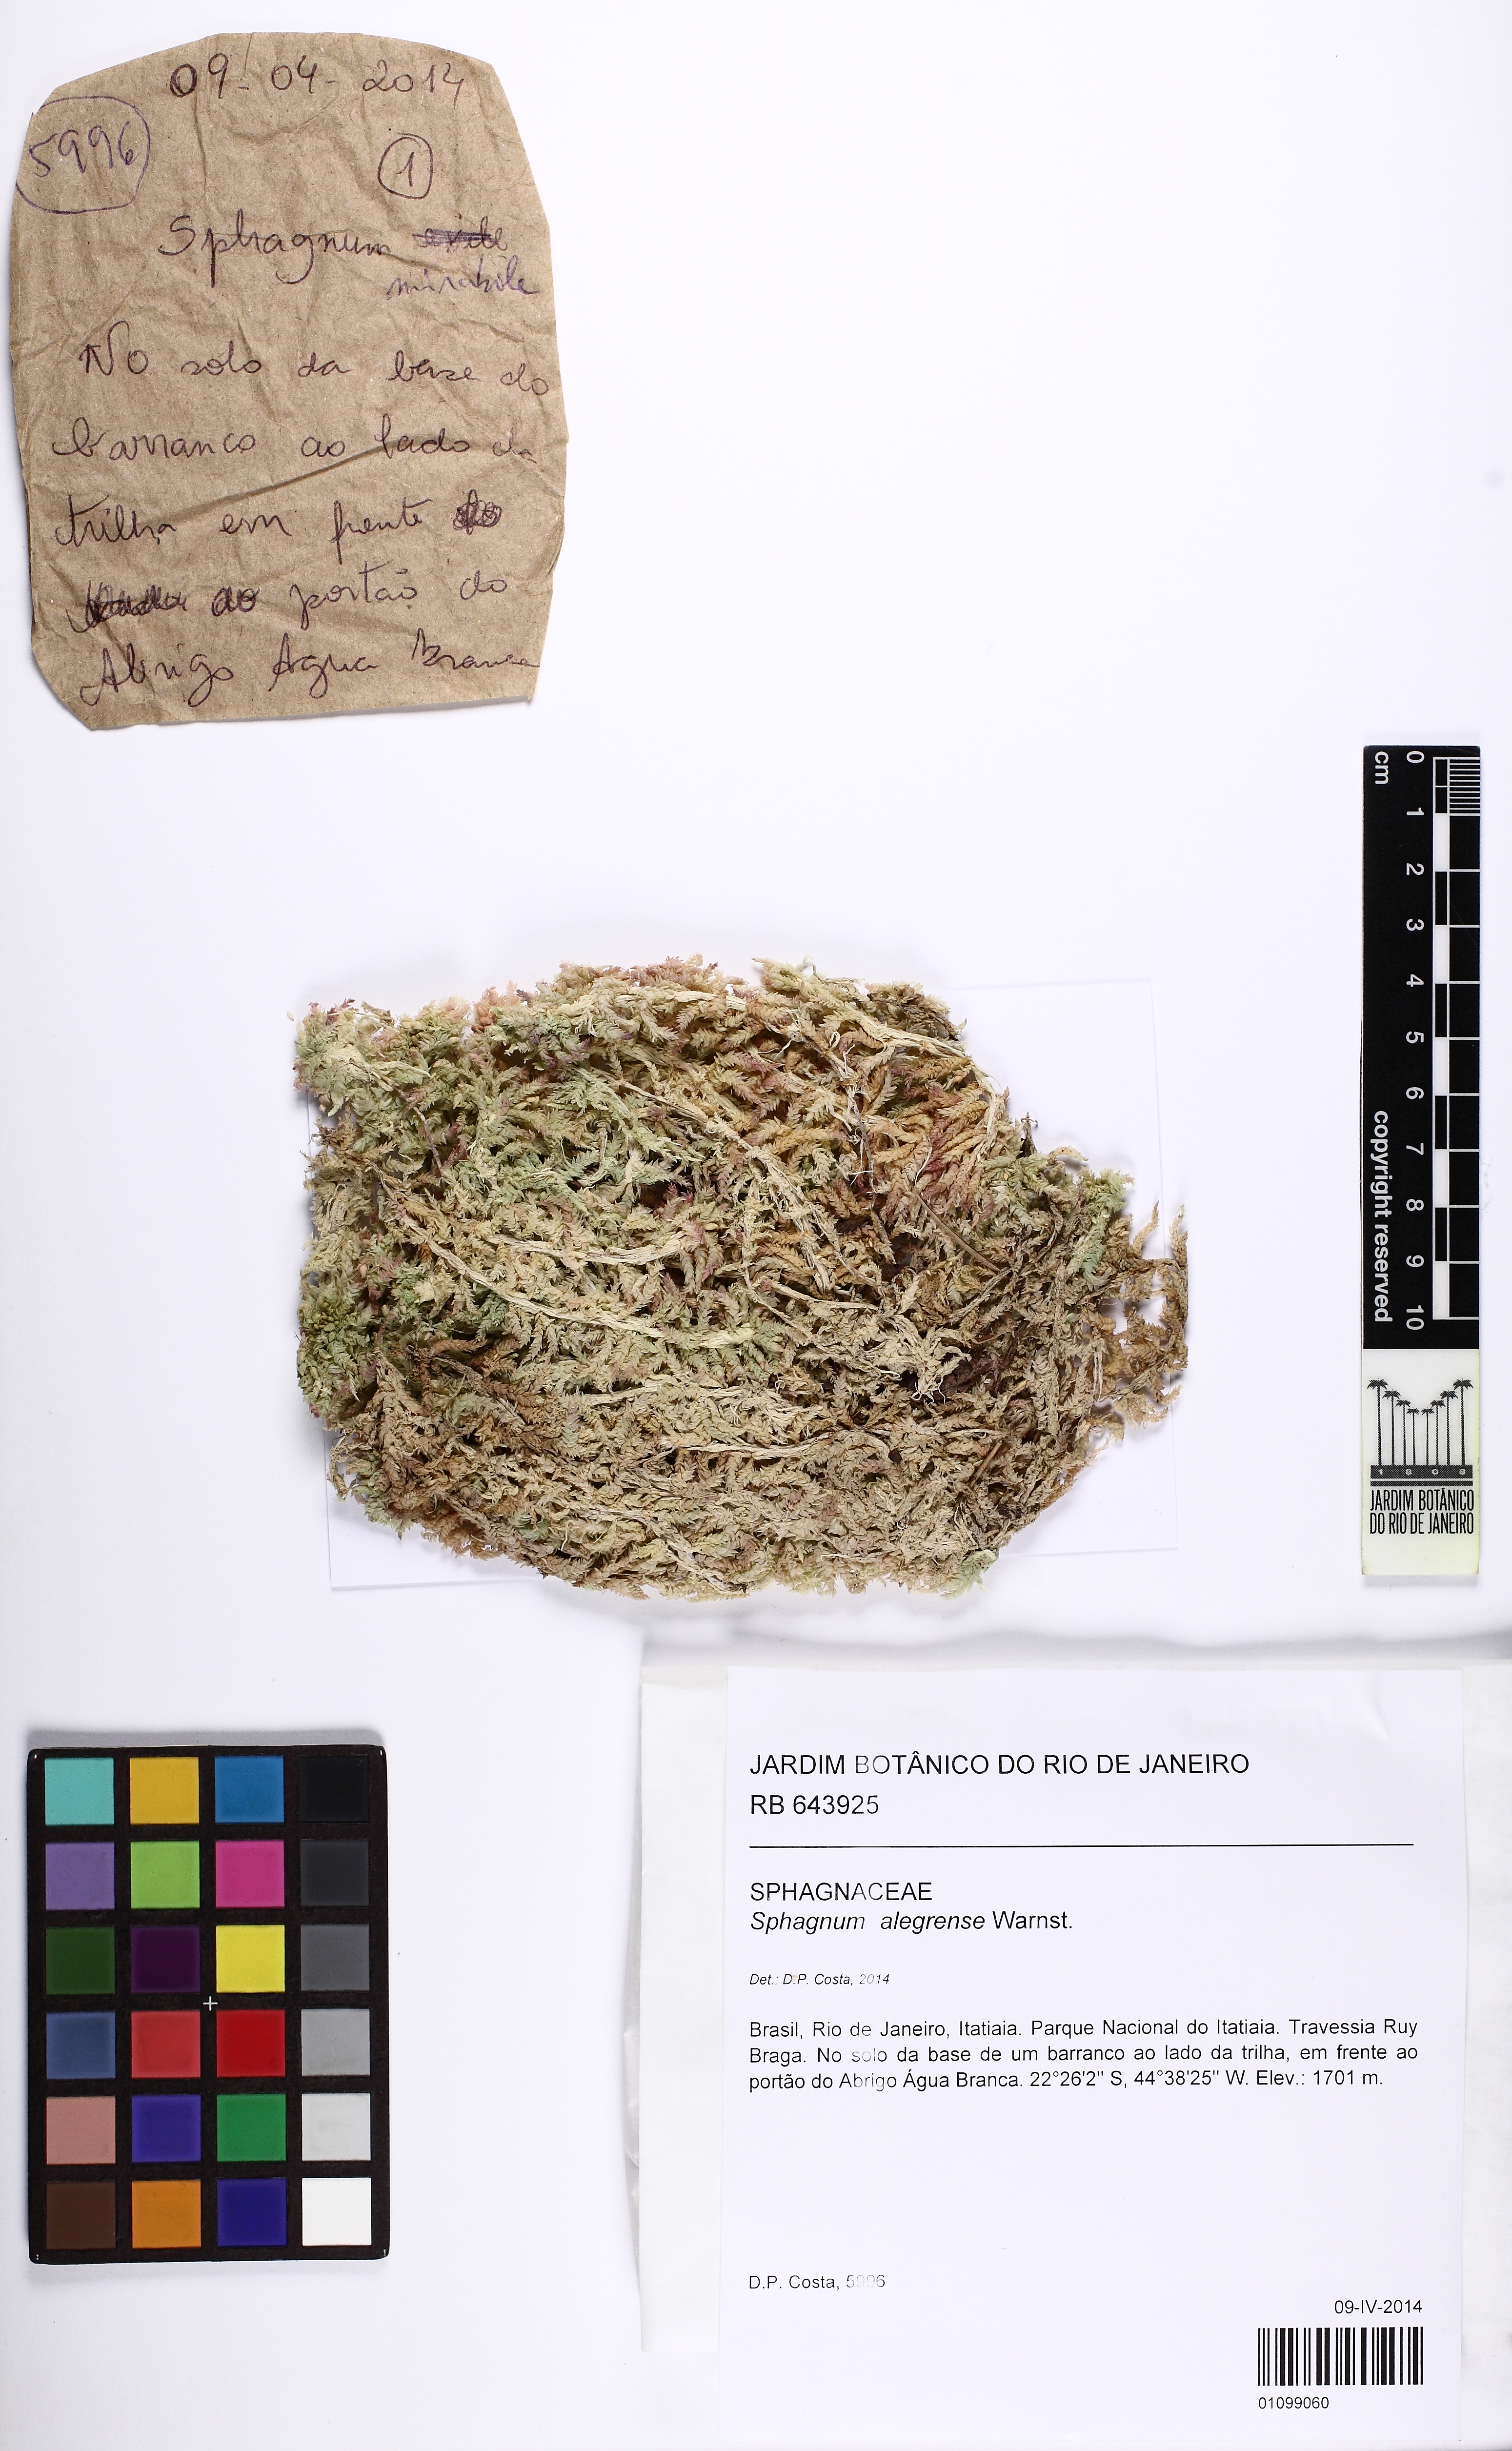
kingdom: Plantae
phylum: Bryophyta
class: Sphagnopsida
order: Sphagnales
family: Sphagnaceae
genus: Sphagnum
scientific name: Sphagnum alegrense
